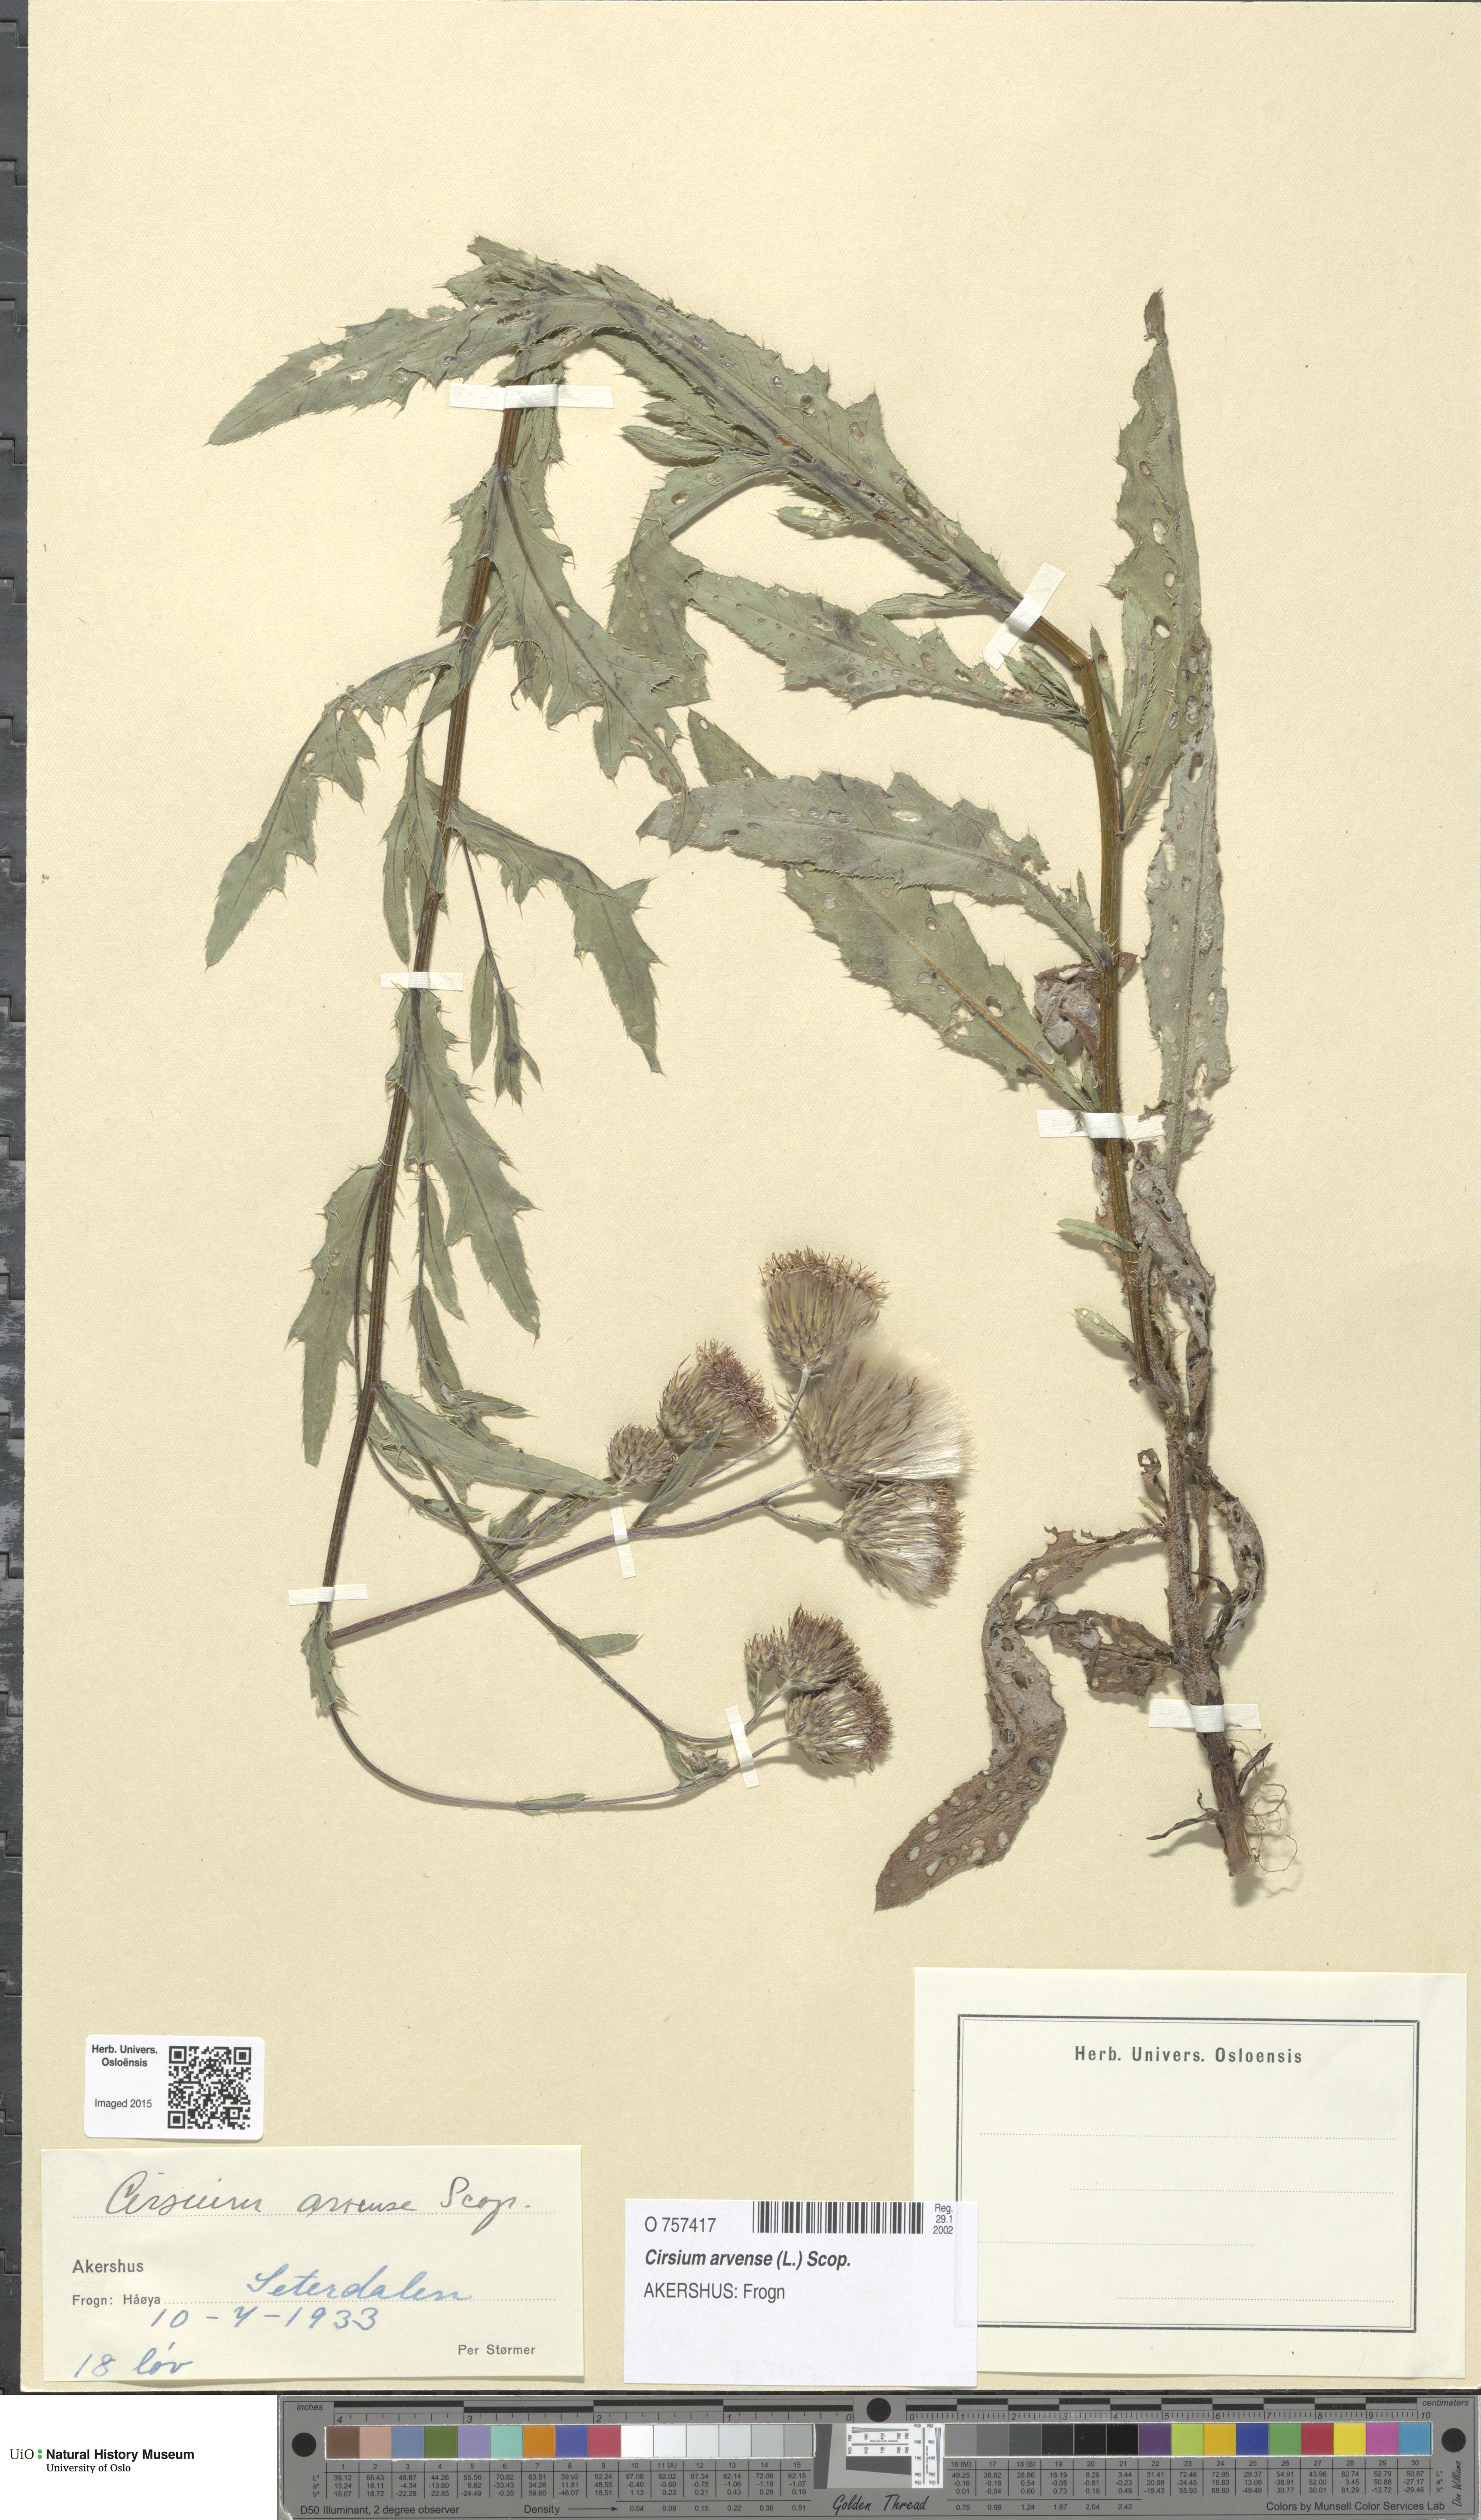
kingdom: Plantae
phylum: Tracheophyta
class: Magnoliopsida
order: Asterales
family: Asteraceae
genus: Cirsium
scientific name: Cirsium arvense
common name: Creeping thistle
